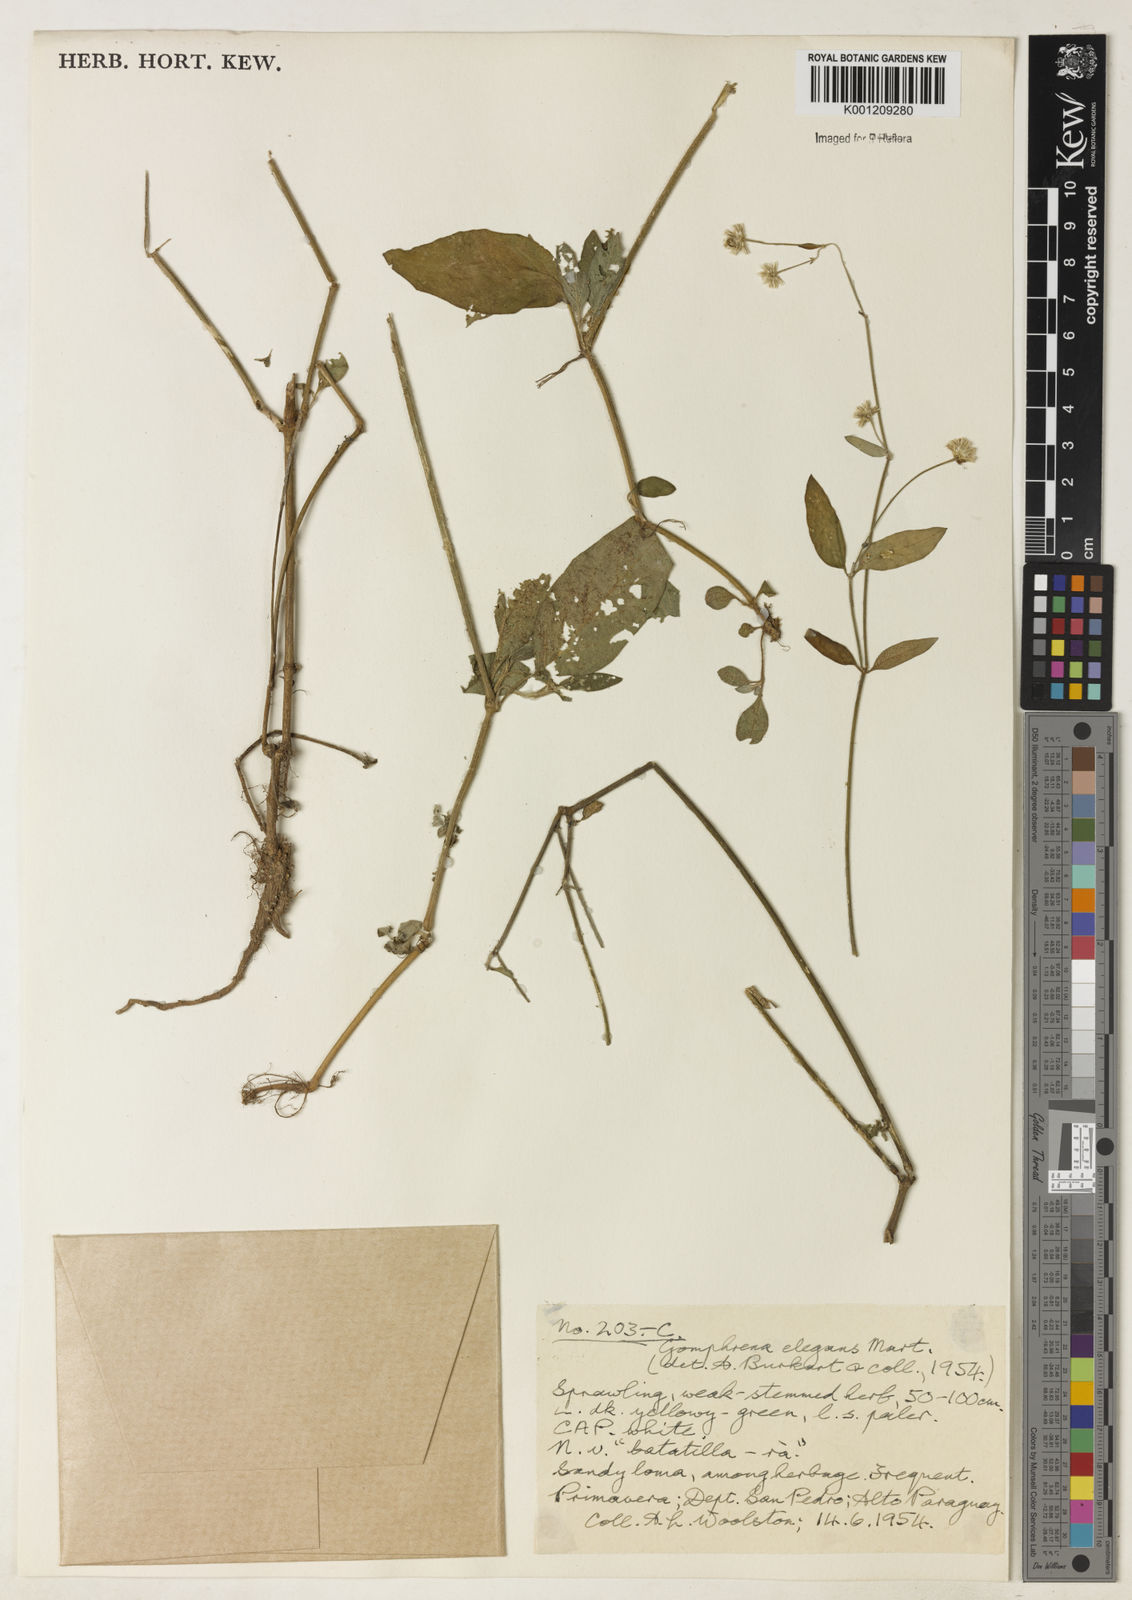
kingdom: Plantae
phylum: Tracheophyta
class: Magnoliopsida
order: Caryophyllales
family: Amaranthaceae
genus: Gomphrena
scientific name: Gomphrena elegans
